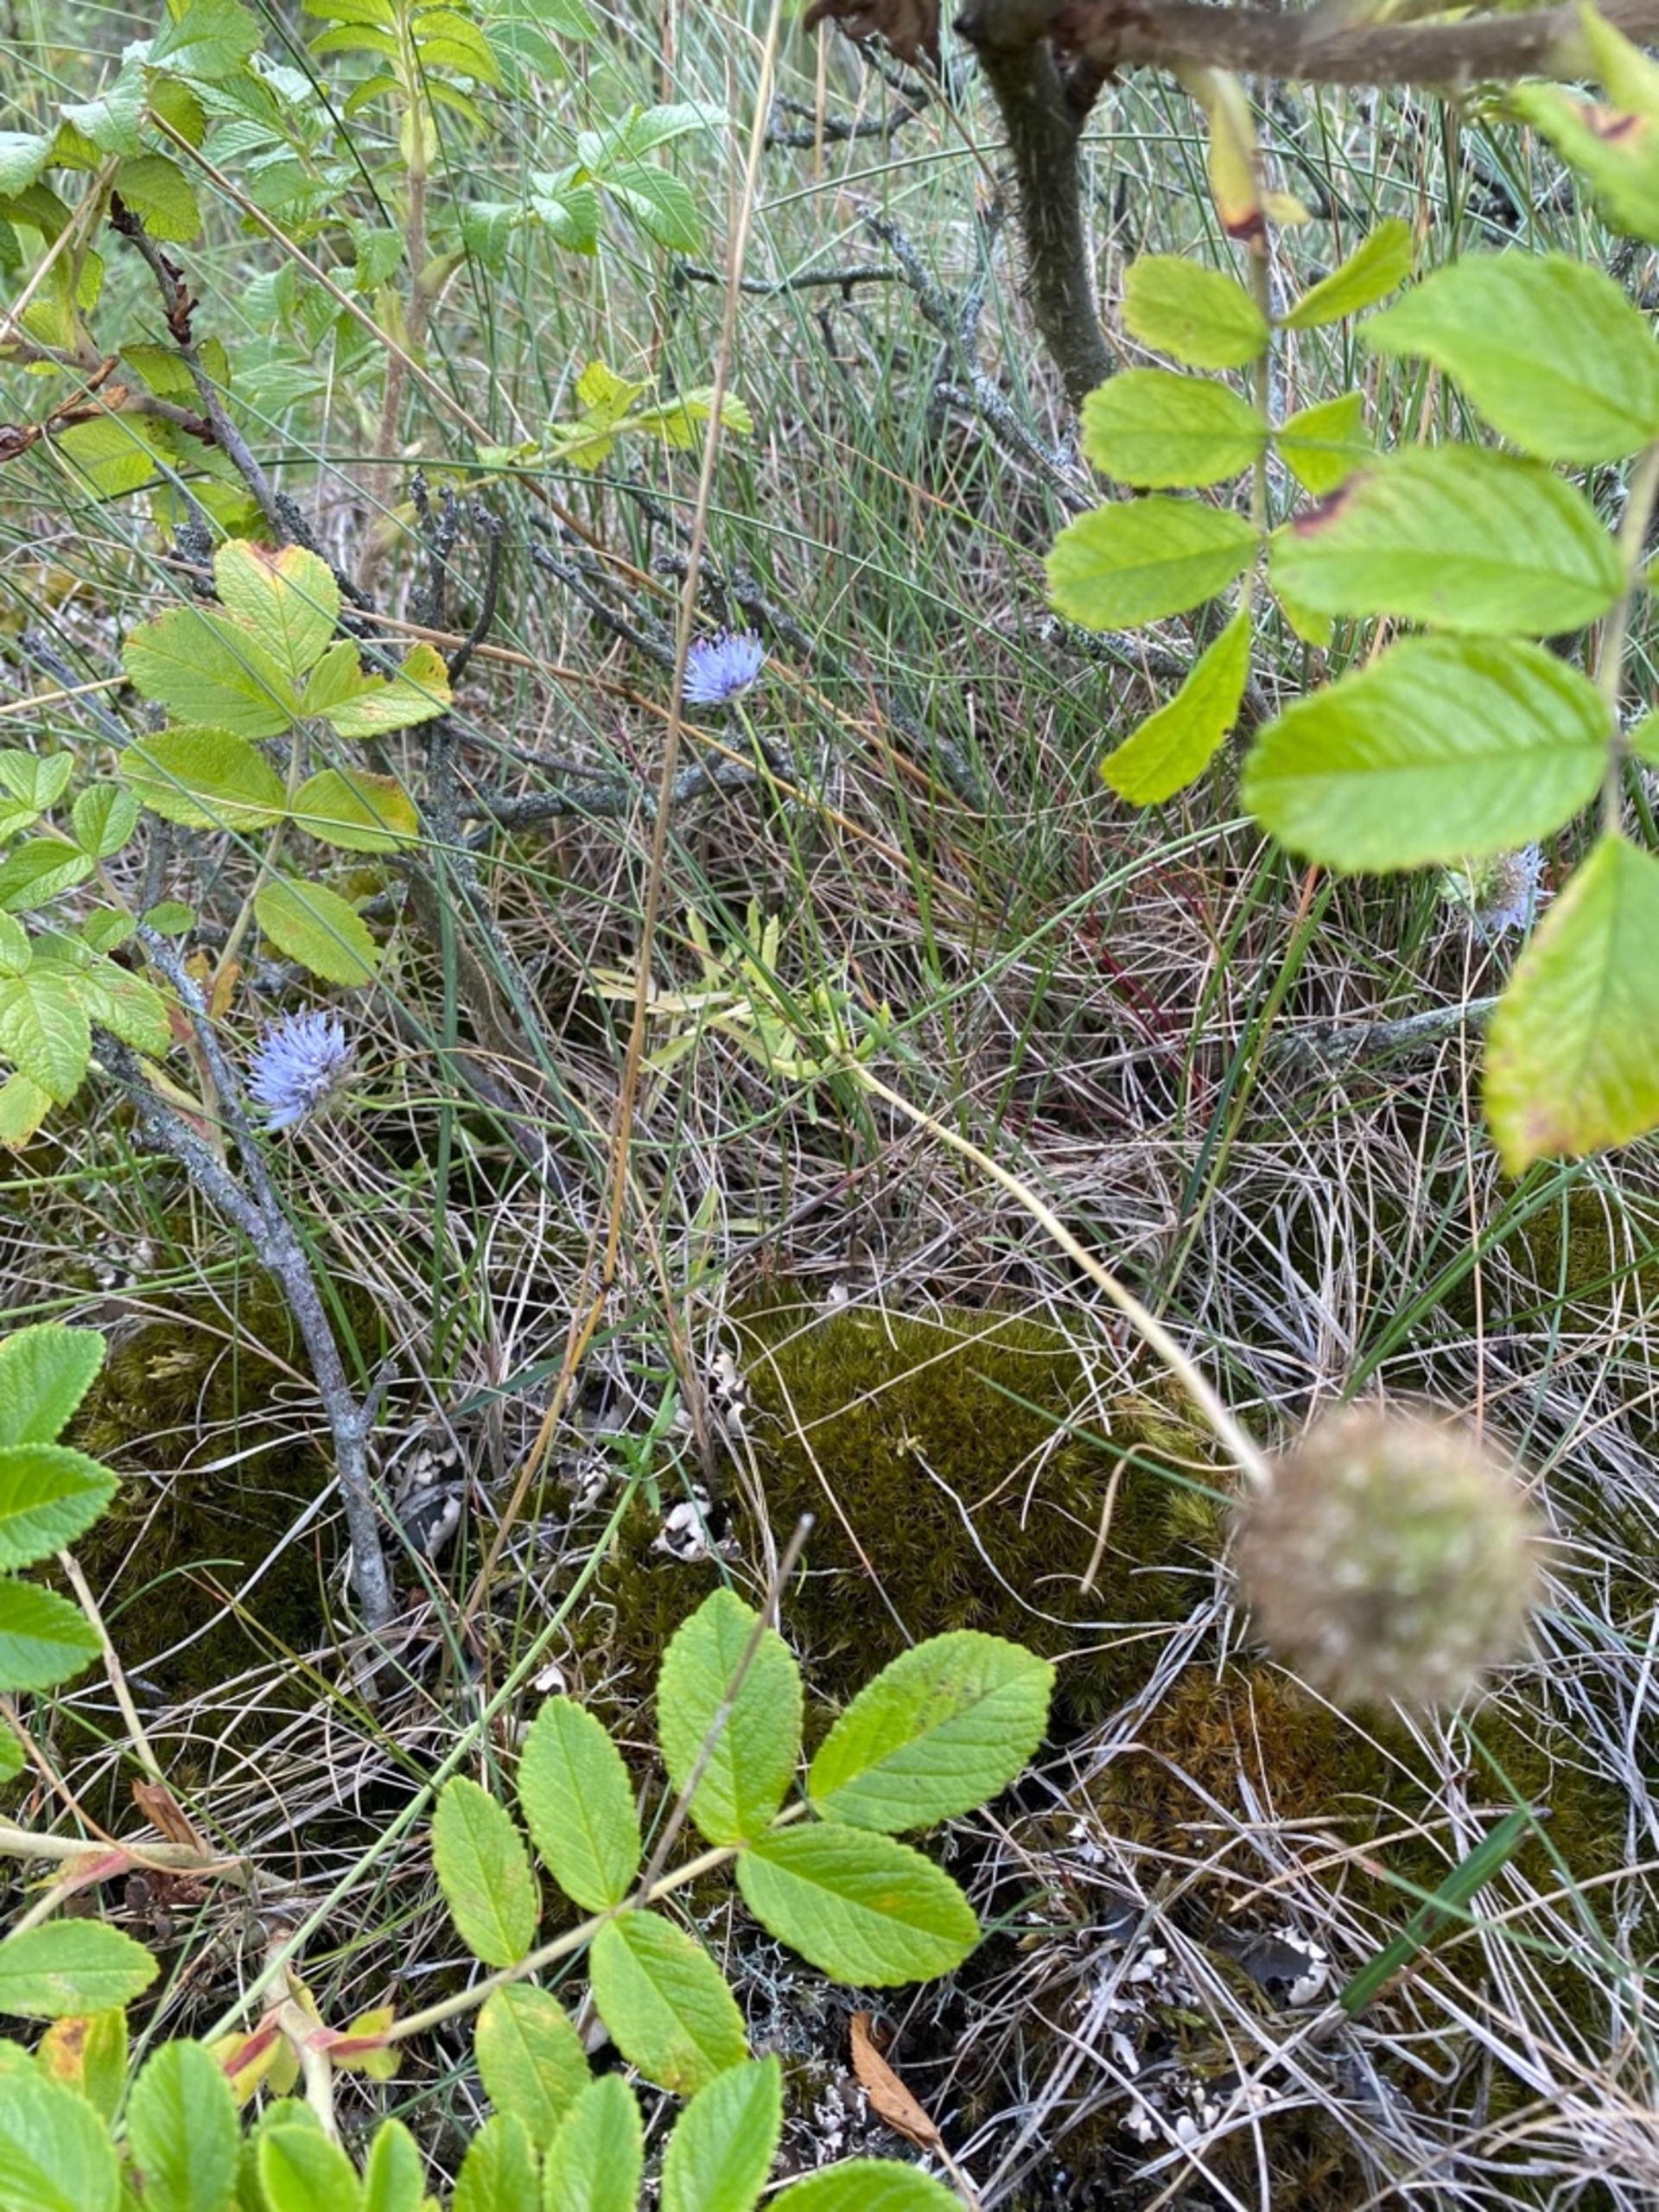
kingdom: Plantae
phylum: Tracheophyta
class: Magnoliopsida
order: Asterales
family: Campanulaceae
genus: Jasione
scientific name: Jasione montana
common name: Blåmunke
